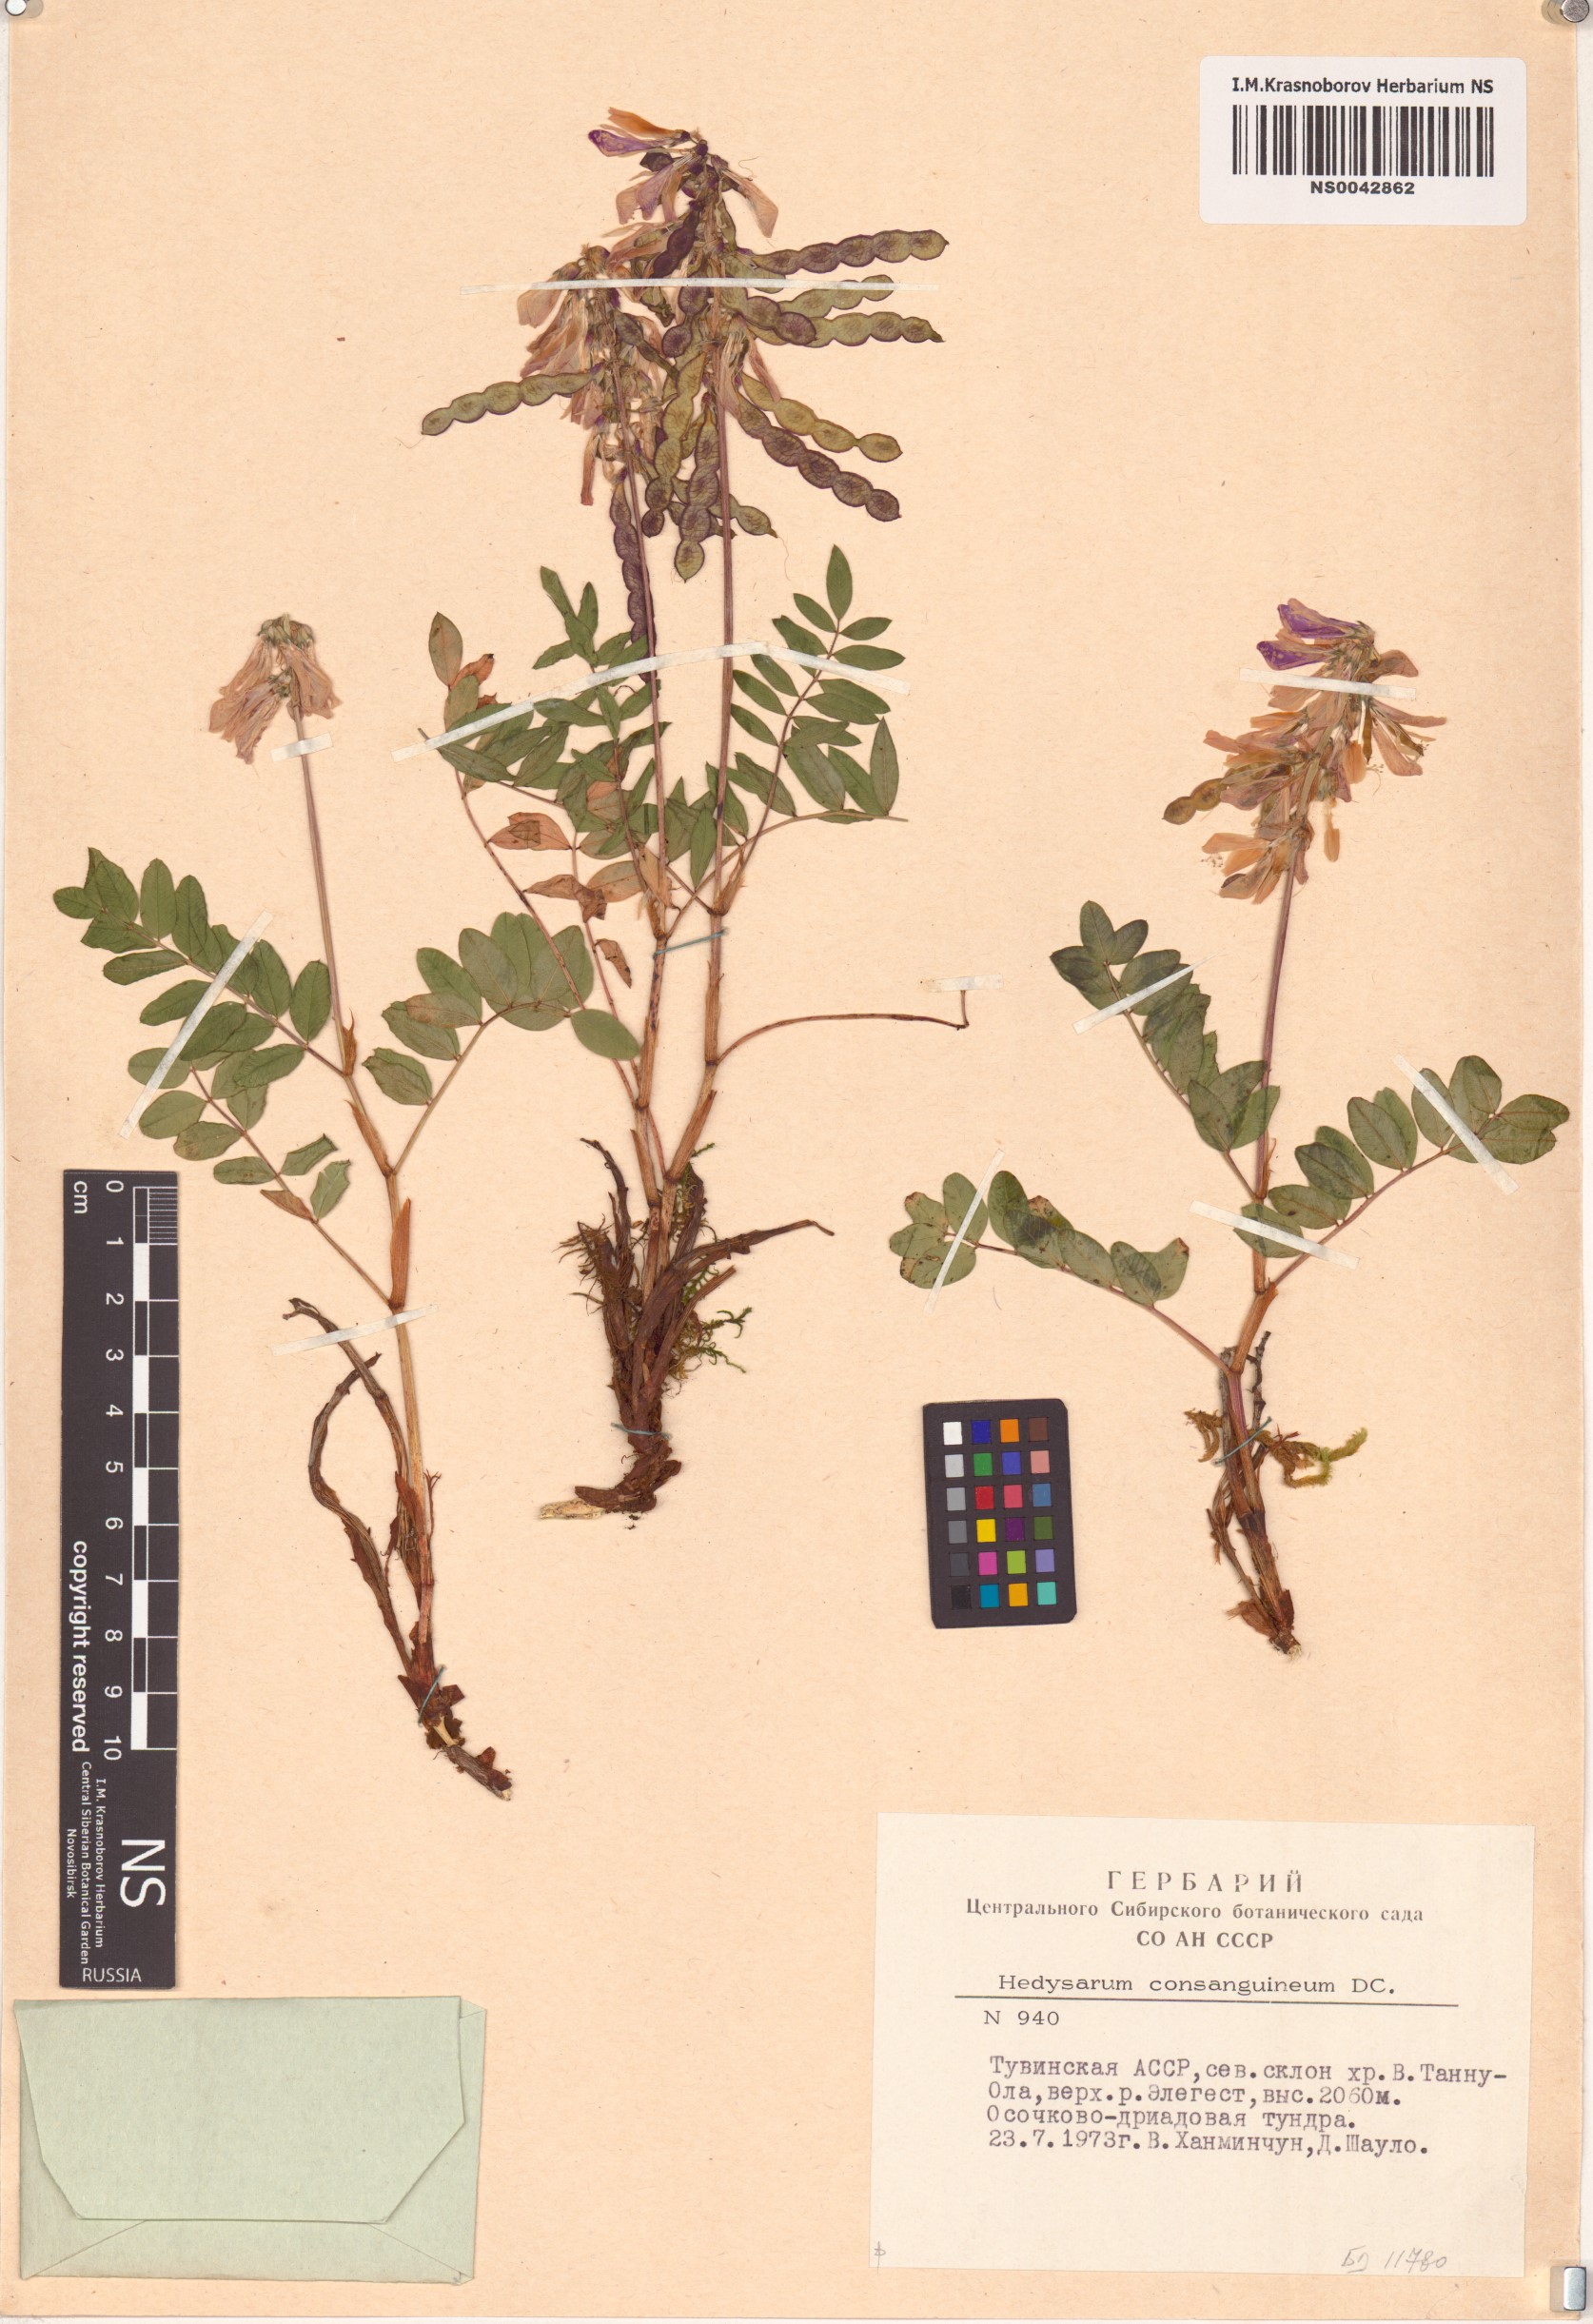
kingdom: Plantae
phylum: Tracheophyta
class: Magnoliopsida
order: Fabales
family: Fabaceae
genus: Hedysarum
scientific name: Hedysarum consanguineum
